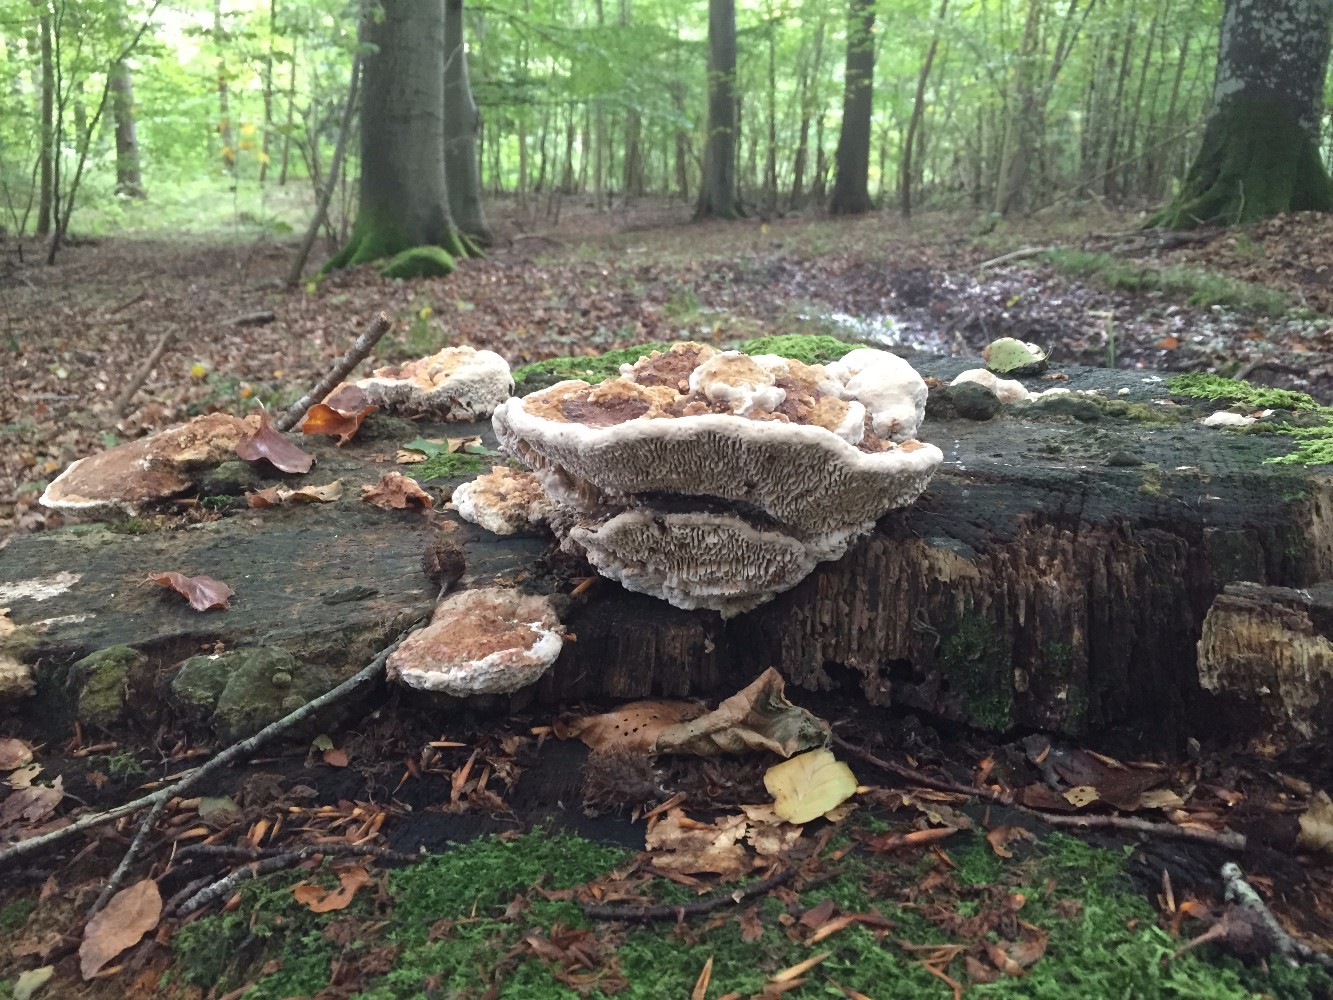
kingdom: Fungi
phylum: Basidiomycota
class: Agaricomycetes
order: Polyporales
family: Fomitopsidaceae
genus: Daedalea
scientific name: Daedalea quercina
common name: ege-labyrintsvamp
